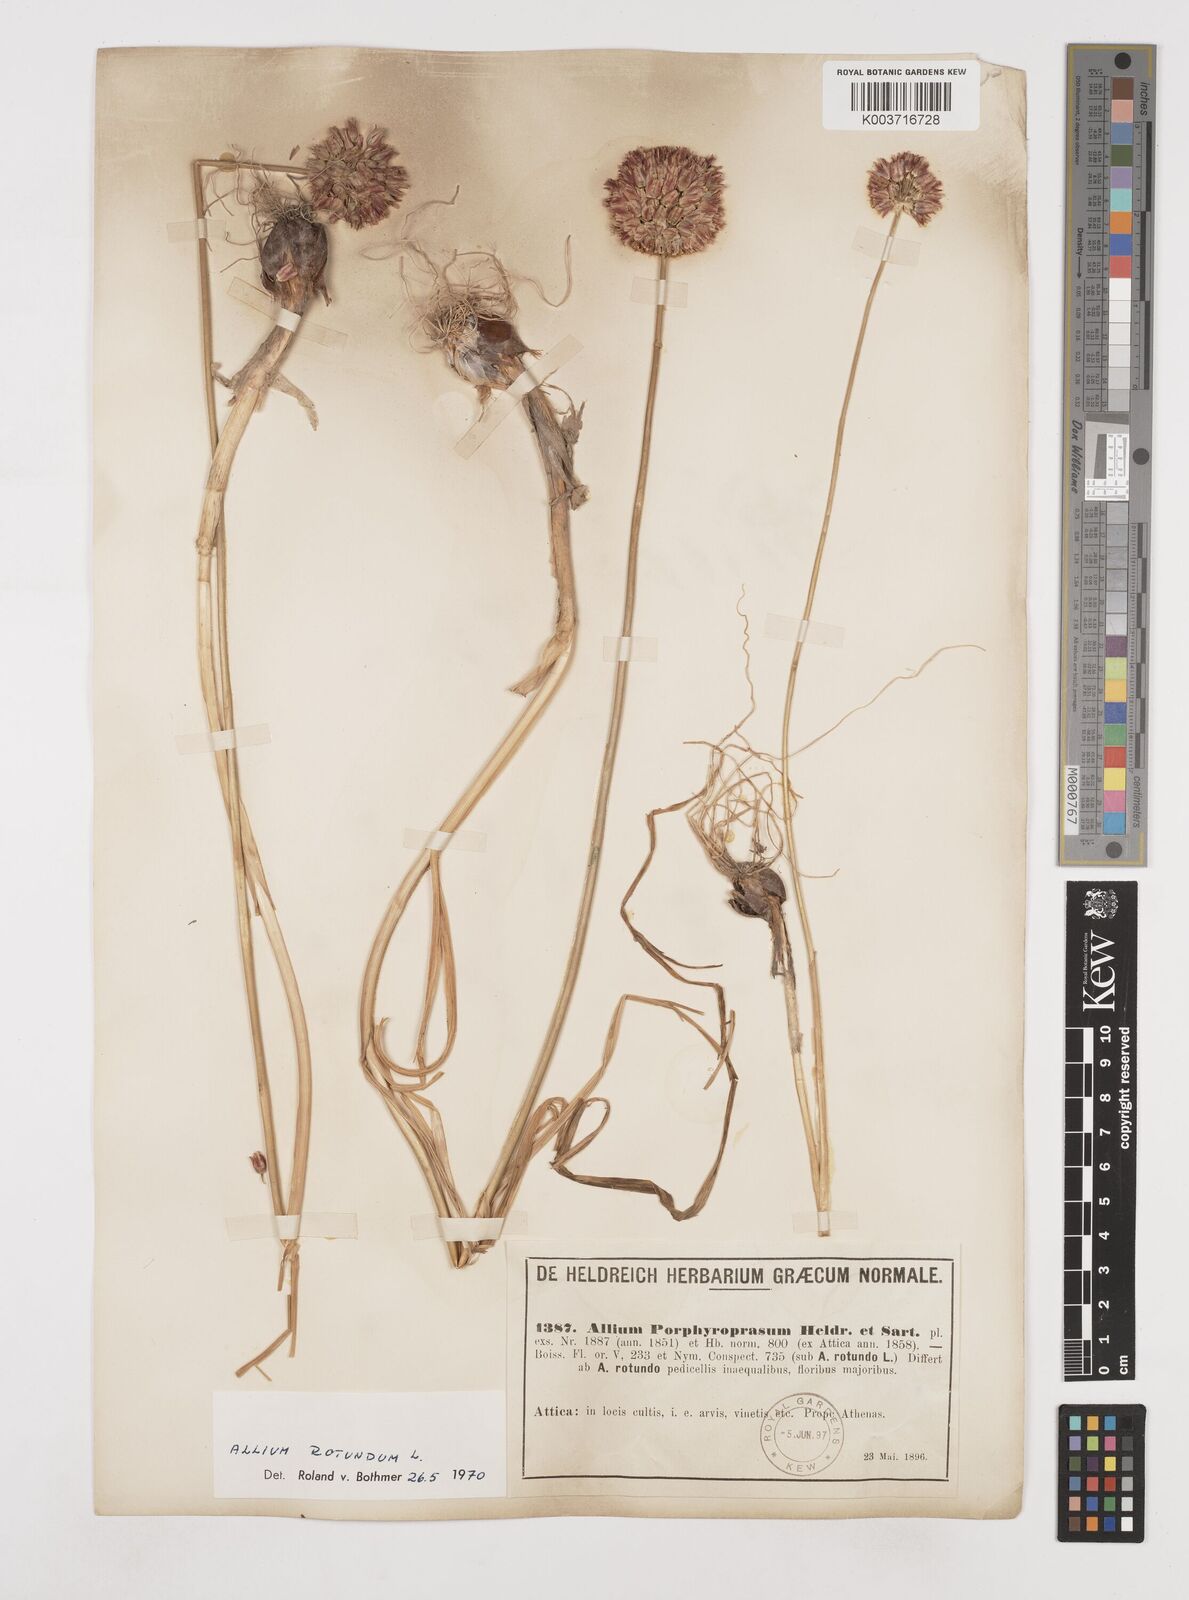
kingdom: Plantae
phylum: Tracheophyta
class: Liliopsida
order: Asparagales
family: Amaryllidaceae
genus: Allium
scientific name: Allium rotundum
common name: Sand leek
